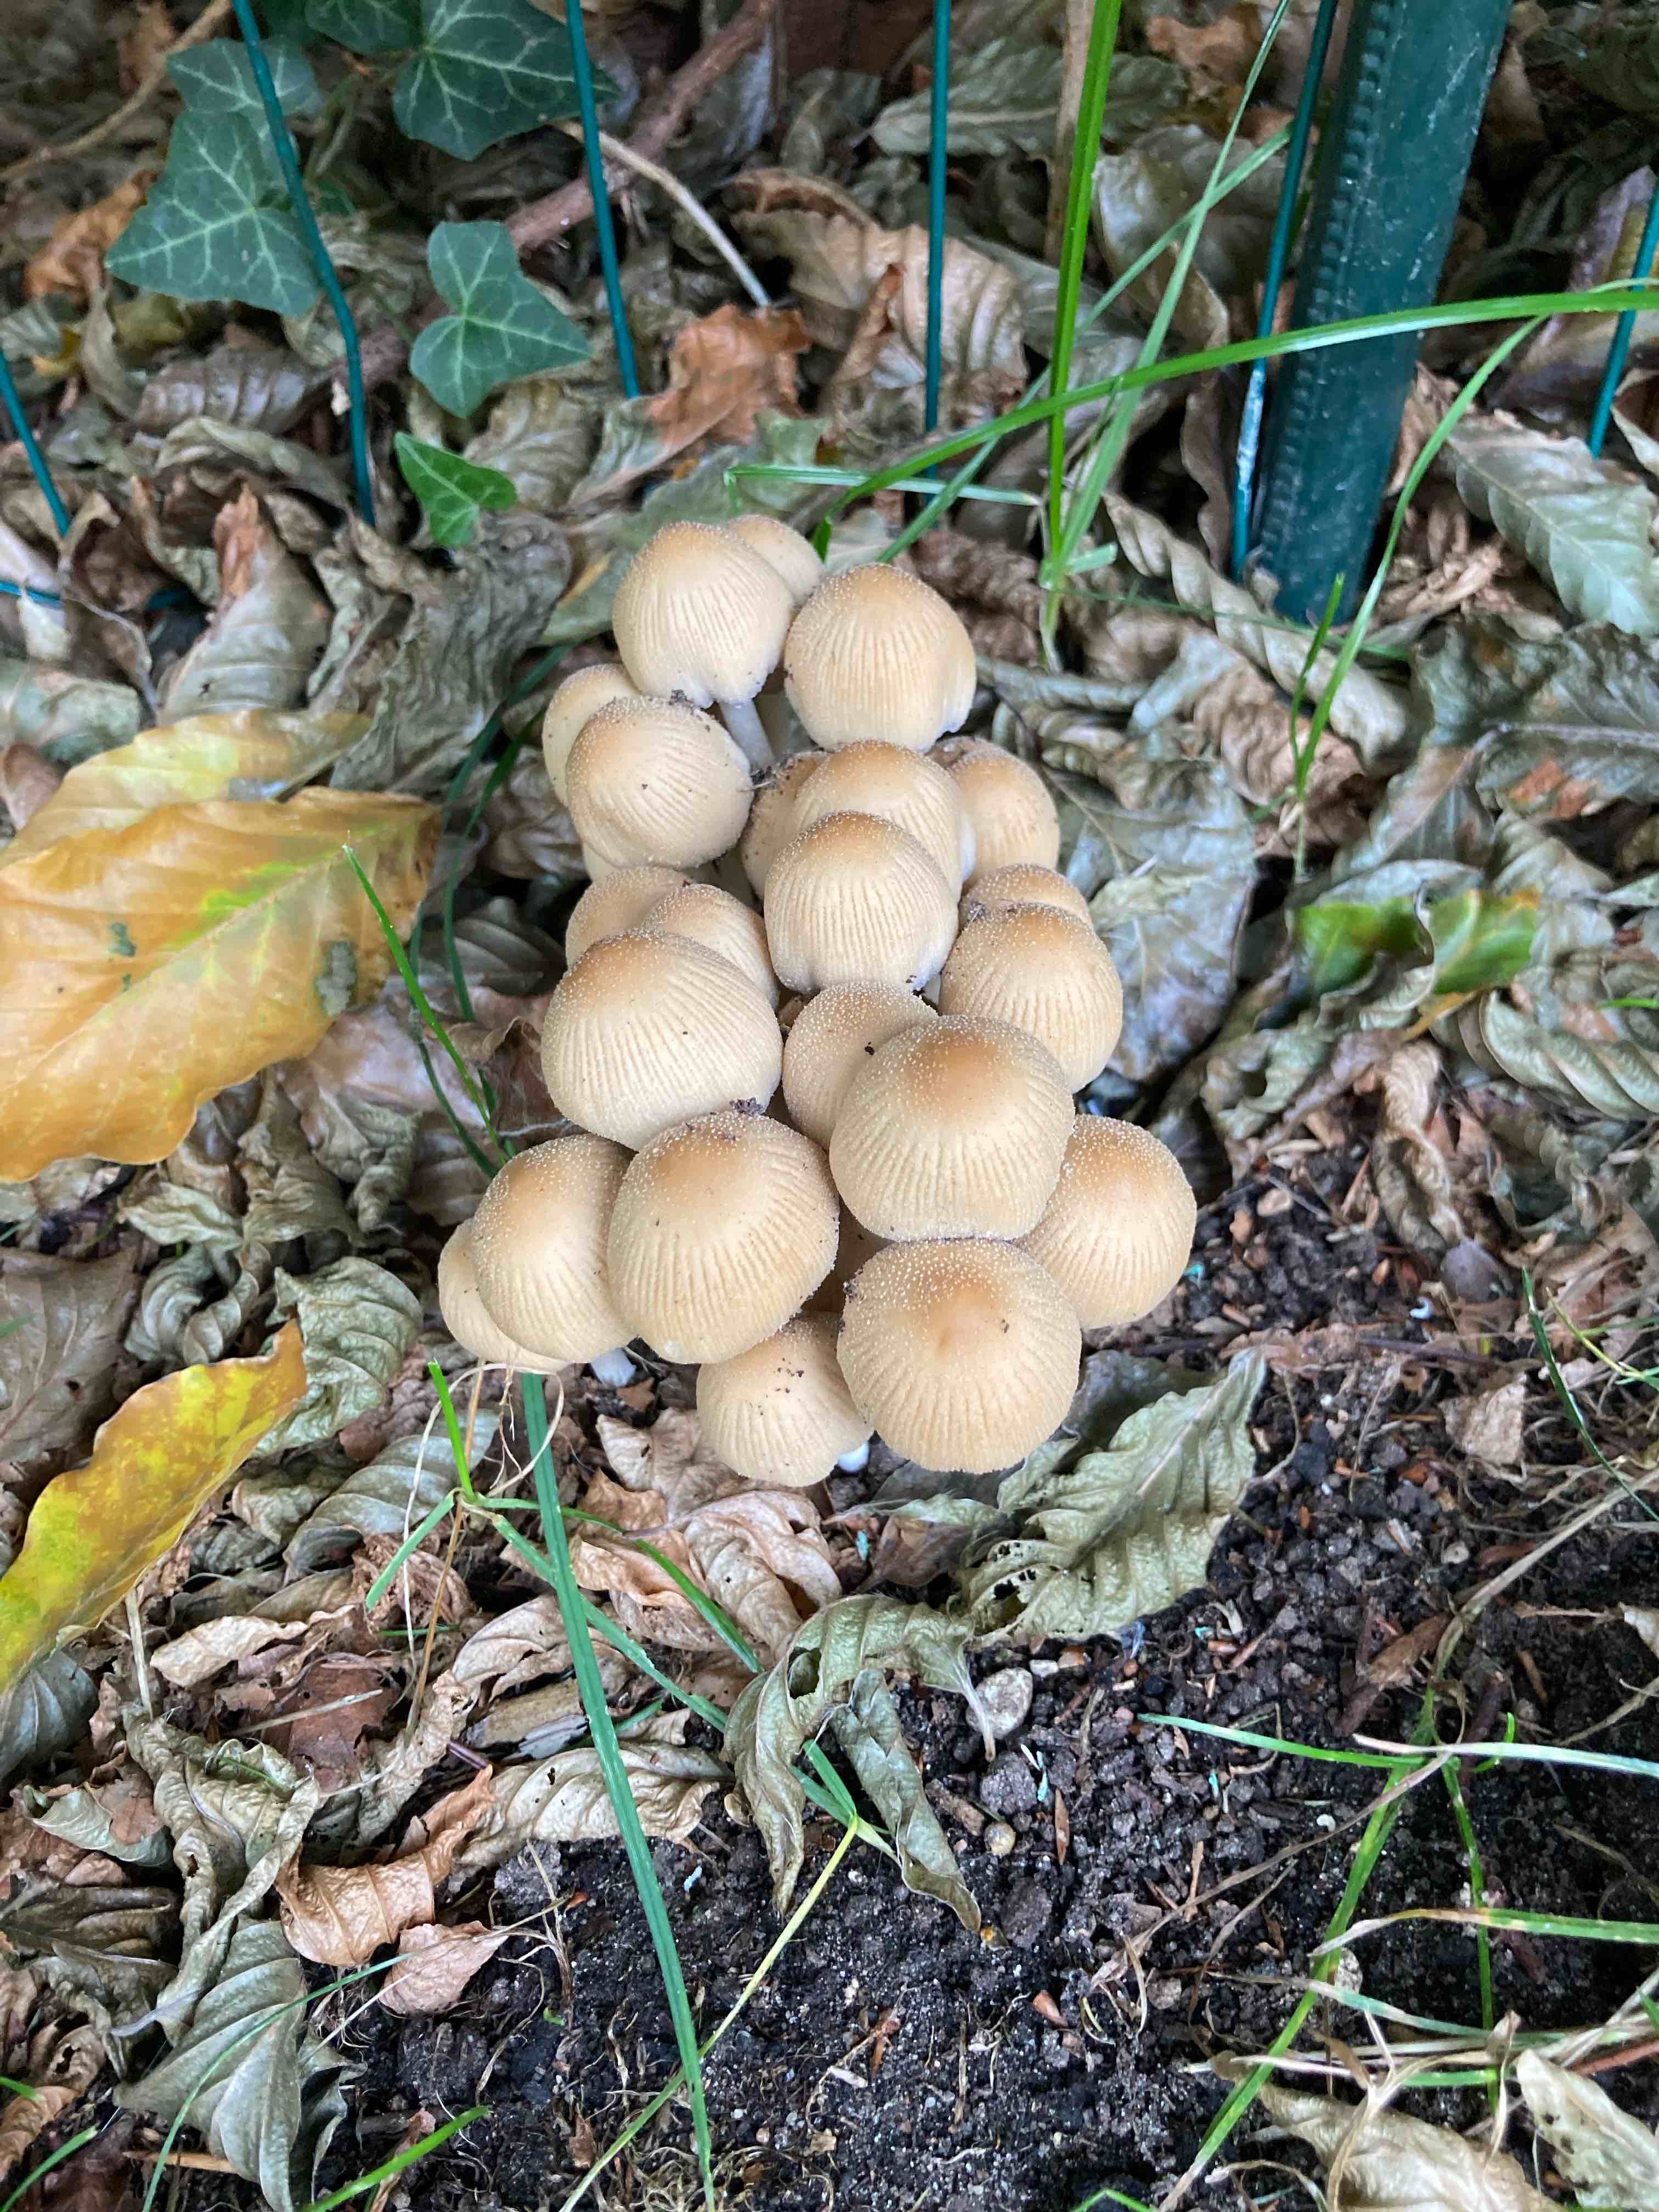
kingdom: Fungi
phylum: Basidiomycota
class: Agaricomycetes
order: Agaricales
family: Psathyrellaceae
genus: Coprinellus
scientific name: Coprinellus
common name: blækhat
